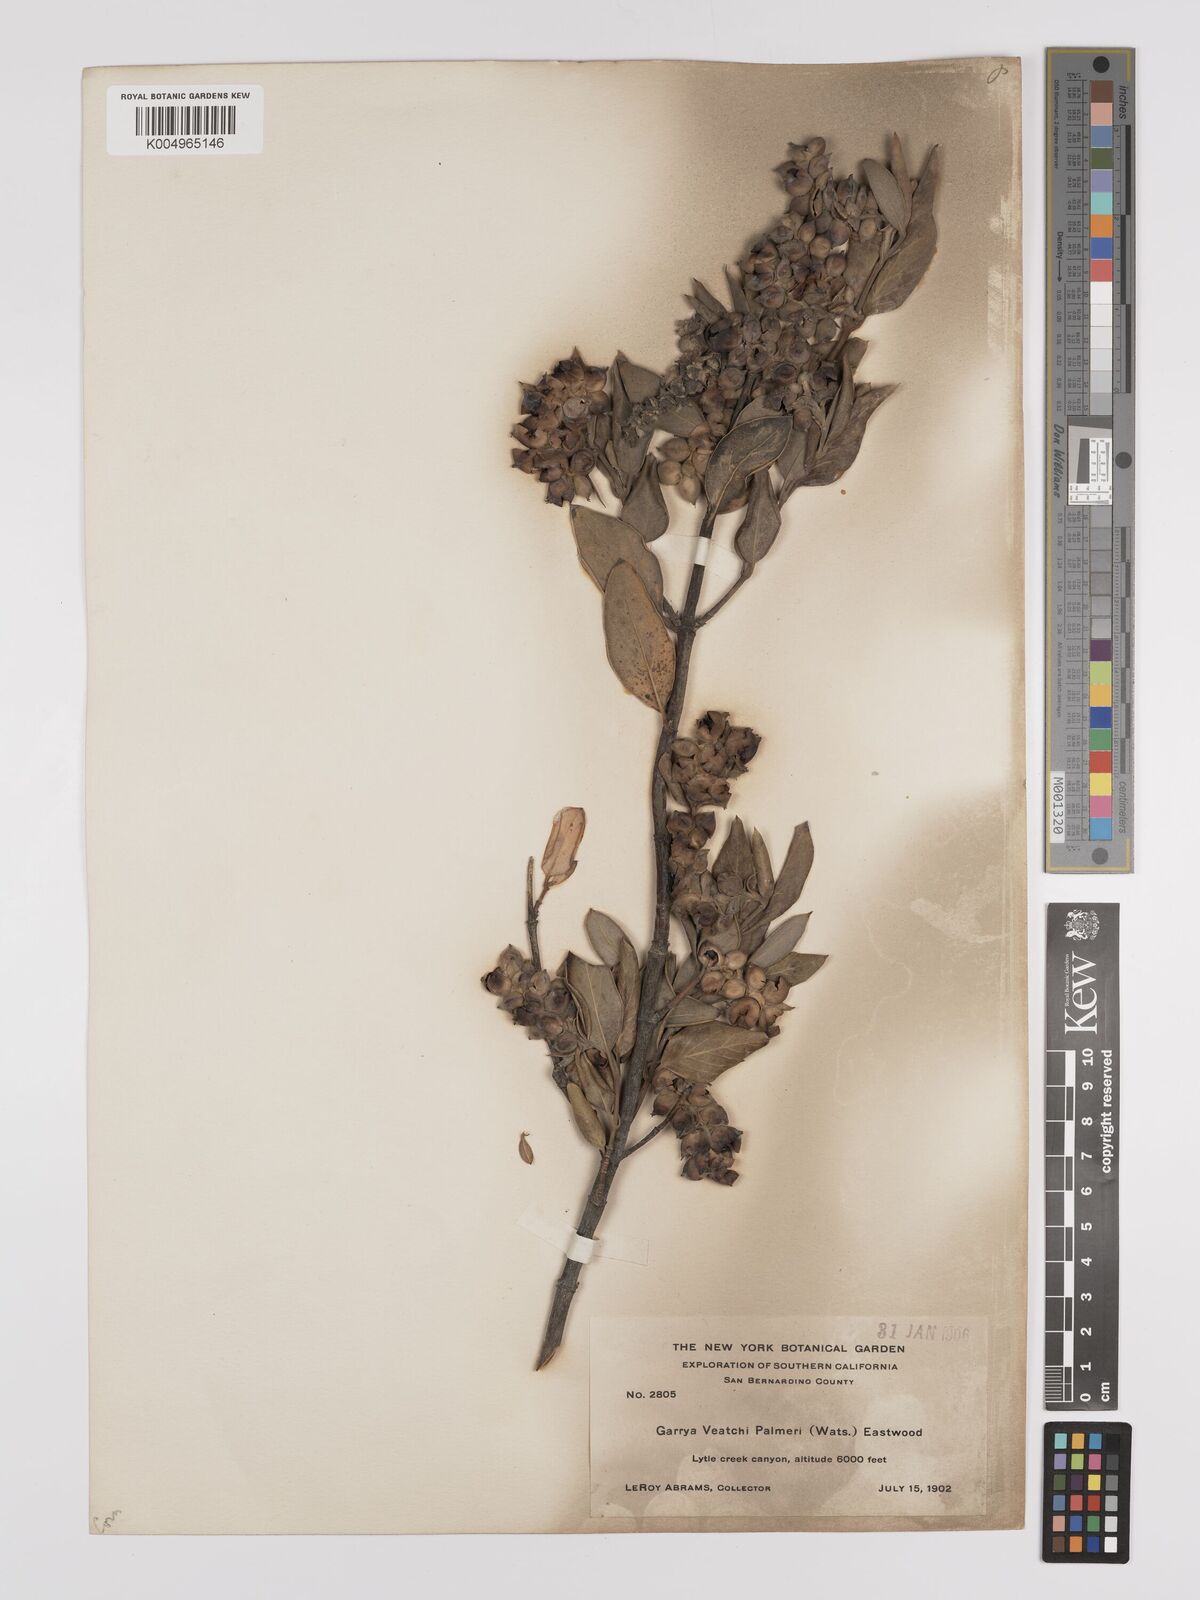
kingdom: Plantae
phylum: Tracheophyta
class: Magnoliopsida
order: Garryales
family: Garryaceae
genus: Garrya
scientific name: Garrya veatchii
